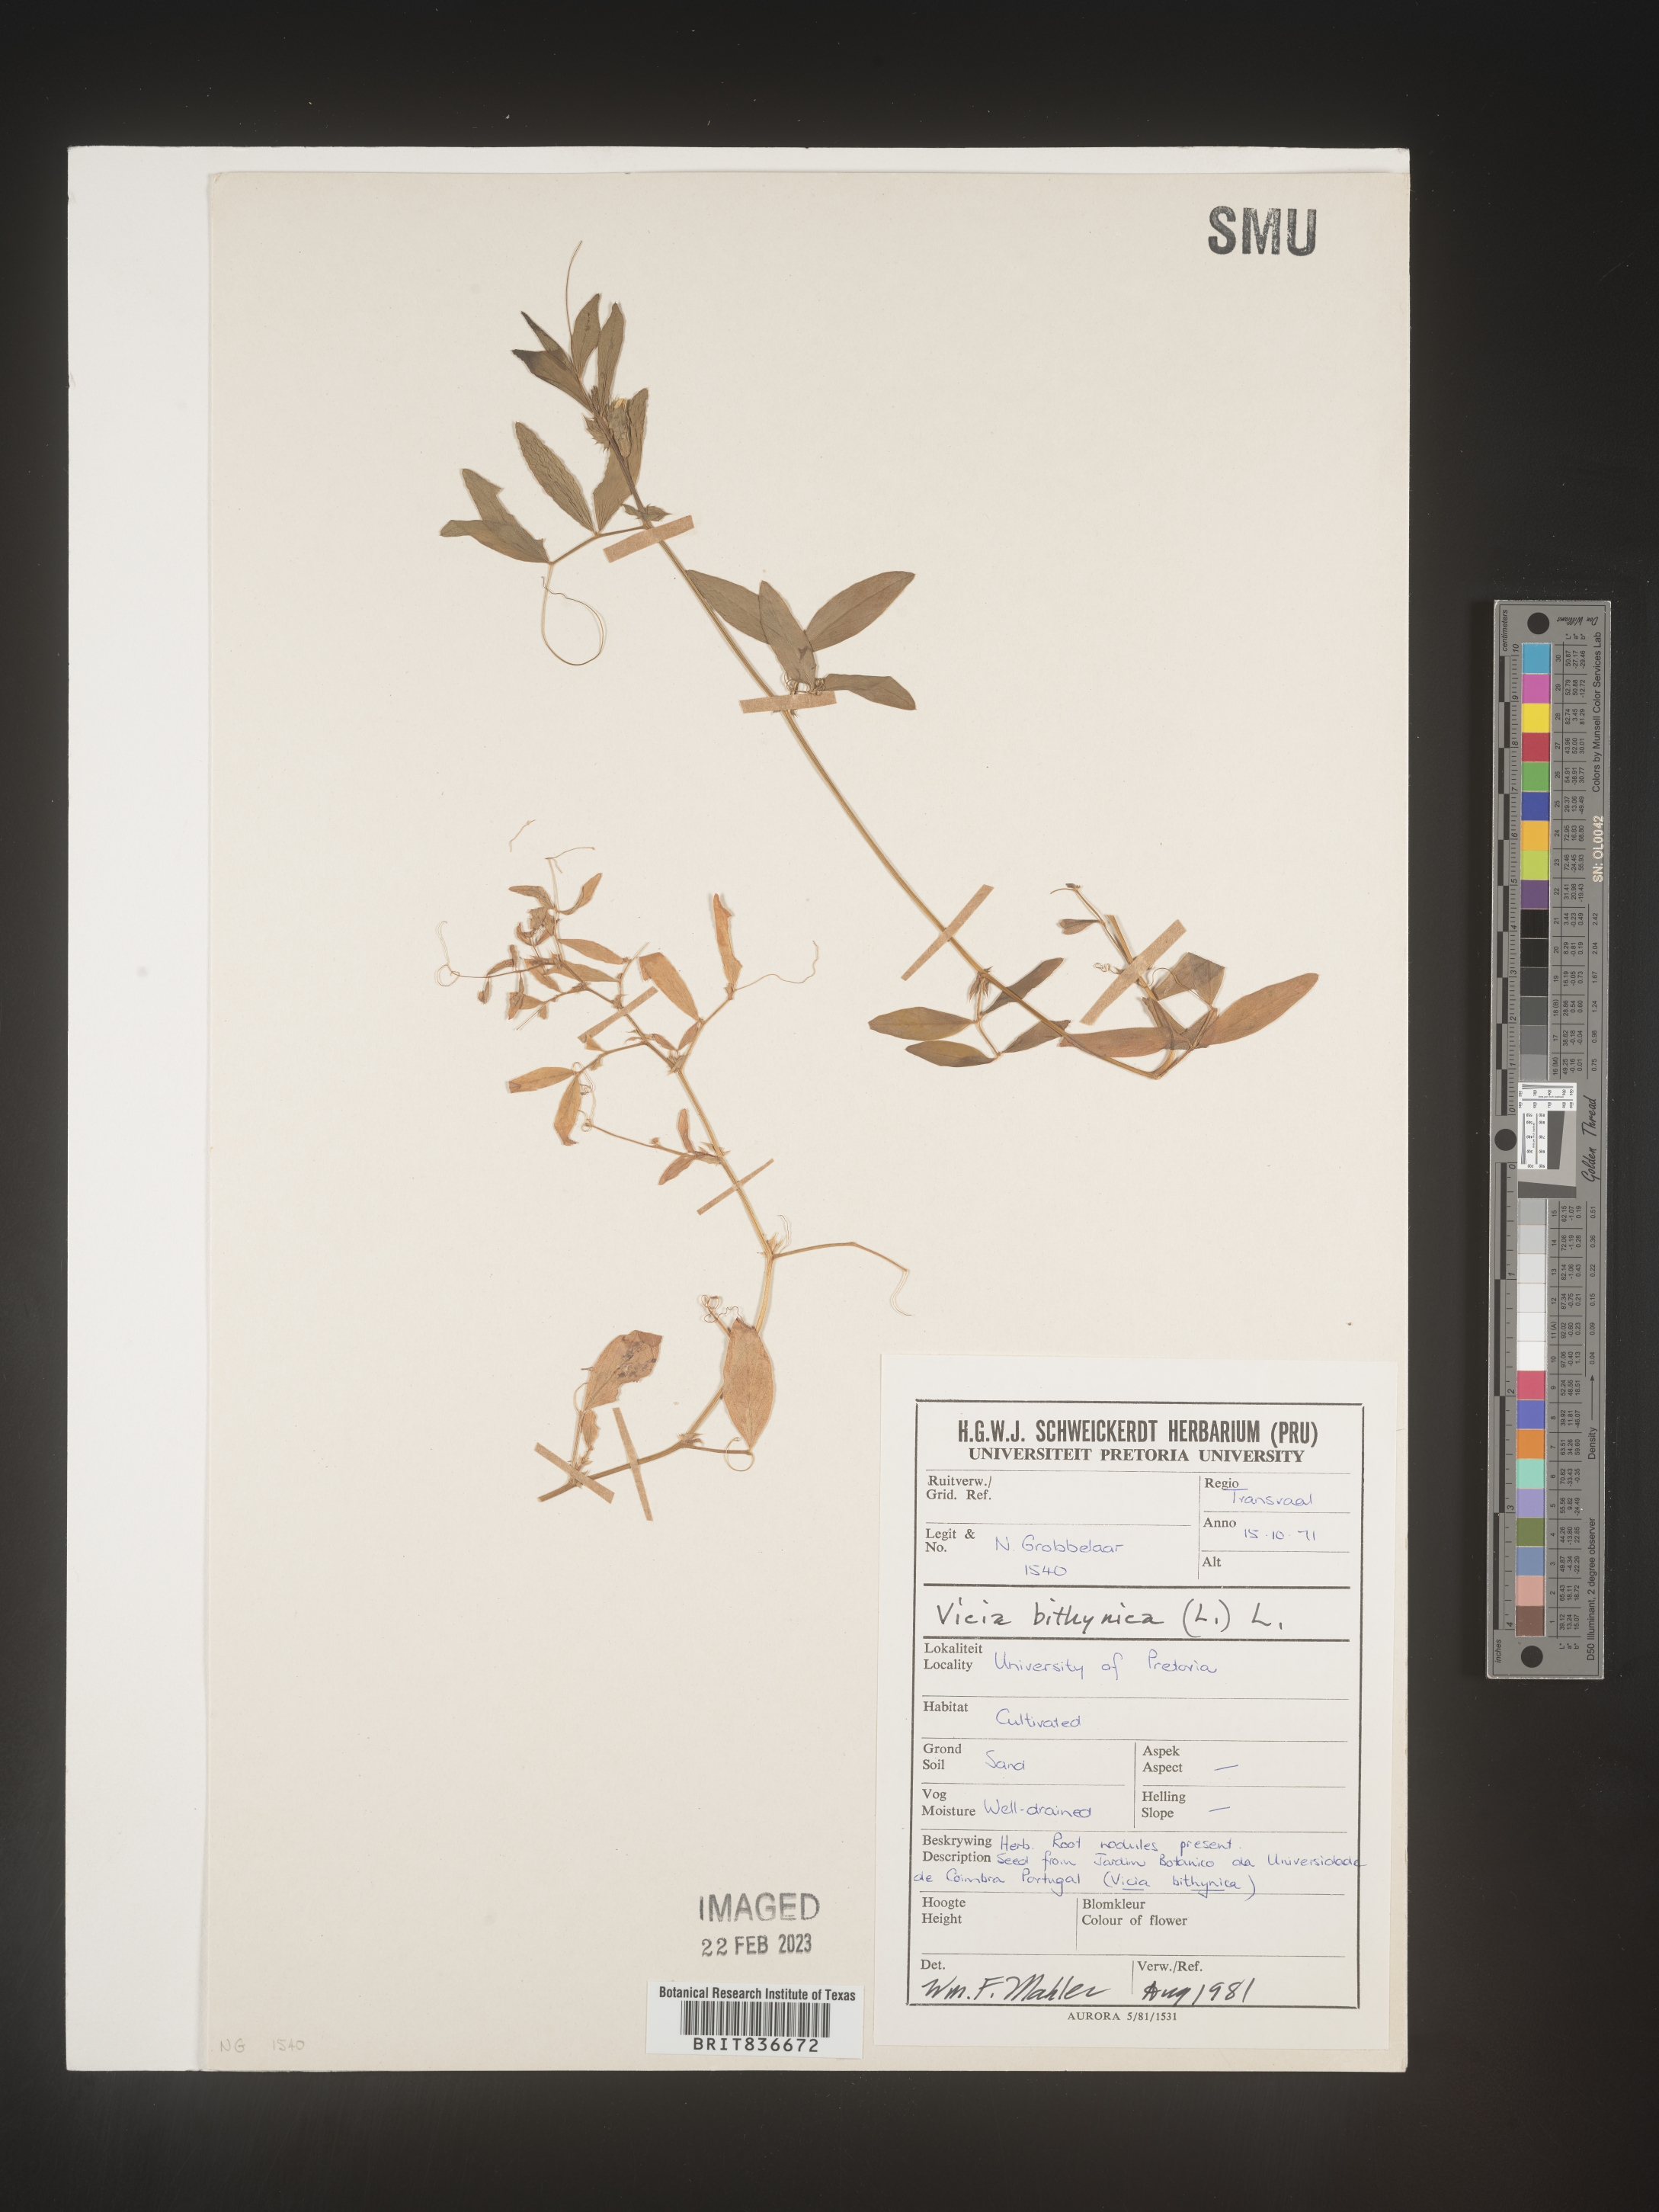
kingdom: Plantae
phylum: Tracheophyta
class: Magnoliopsida
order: Fabales
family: Fabaceae
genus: Vicia
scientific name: Vicia
